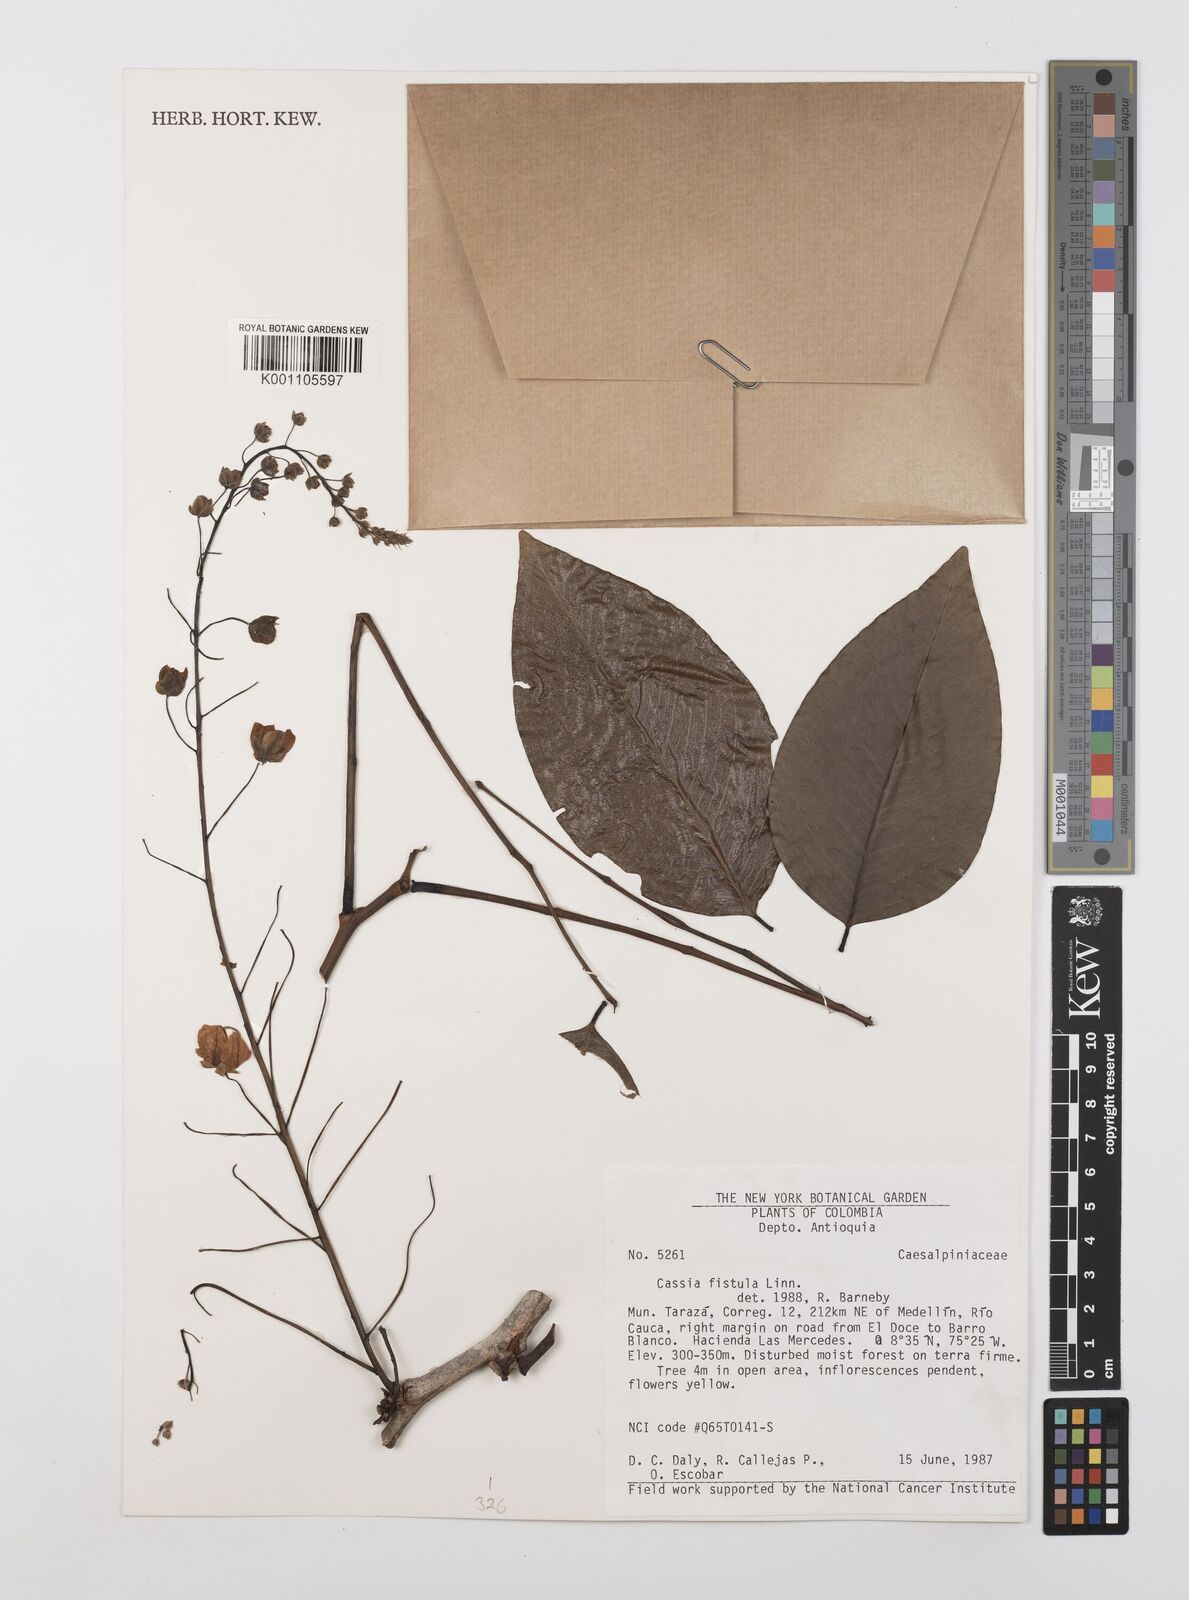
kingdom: Plantae
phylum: Tracheophyta
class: Magnoliopsida
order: Fabales
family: Fabaceae
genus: Cassia
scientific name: Cassia fistula
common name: Golden shower
